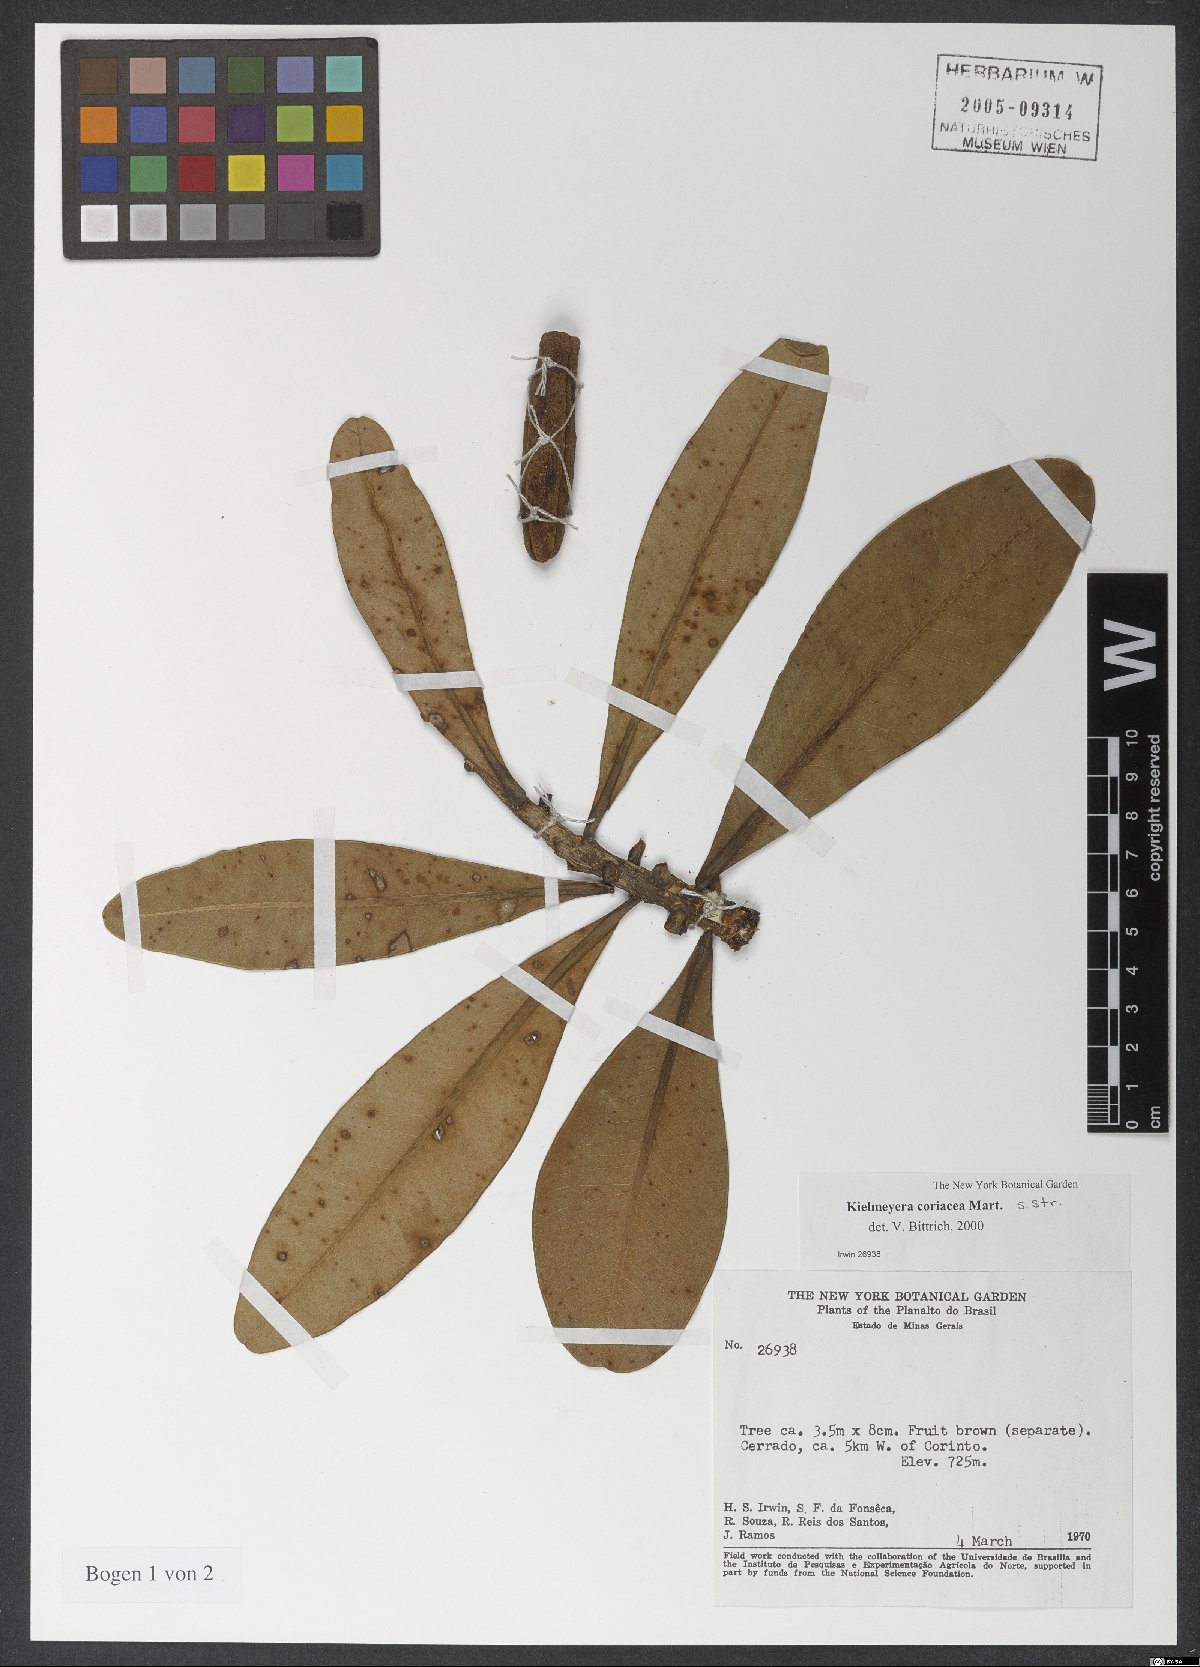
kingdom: Plantae
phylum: Tracheophyta
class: Magnoliopsida
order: Malpighiales
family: Calophyllaceae
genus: Kielmeyera
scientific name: Kielmeyera coriacea
